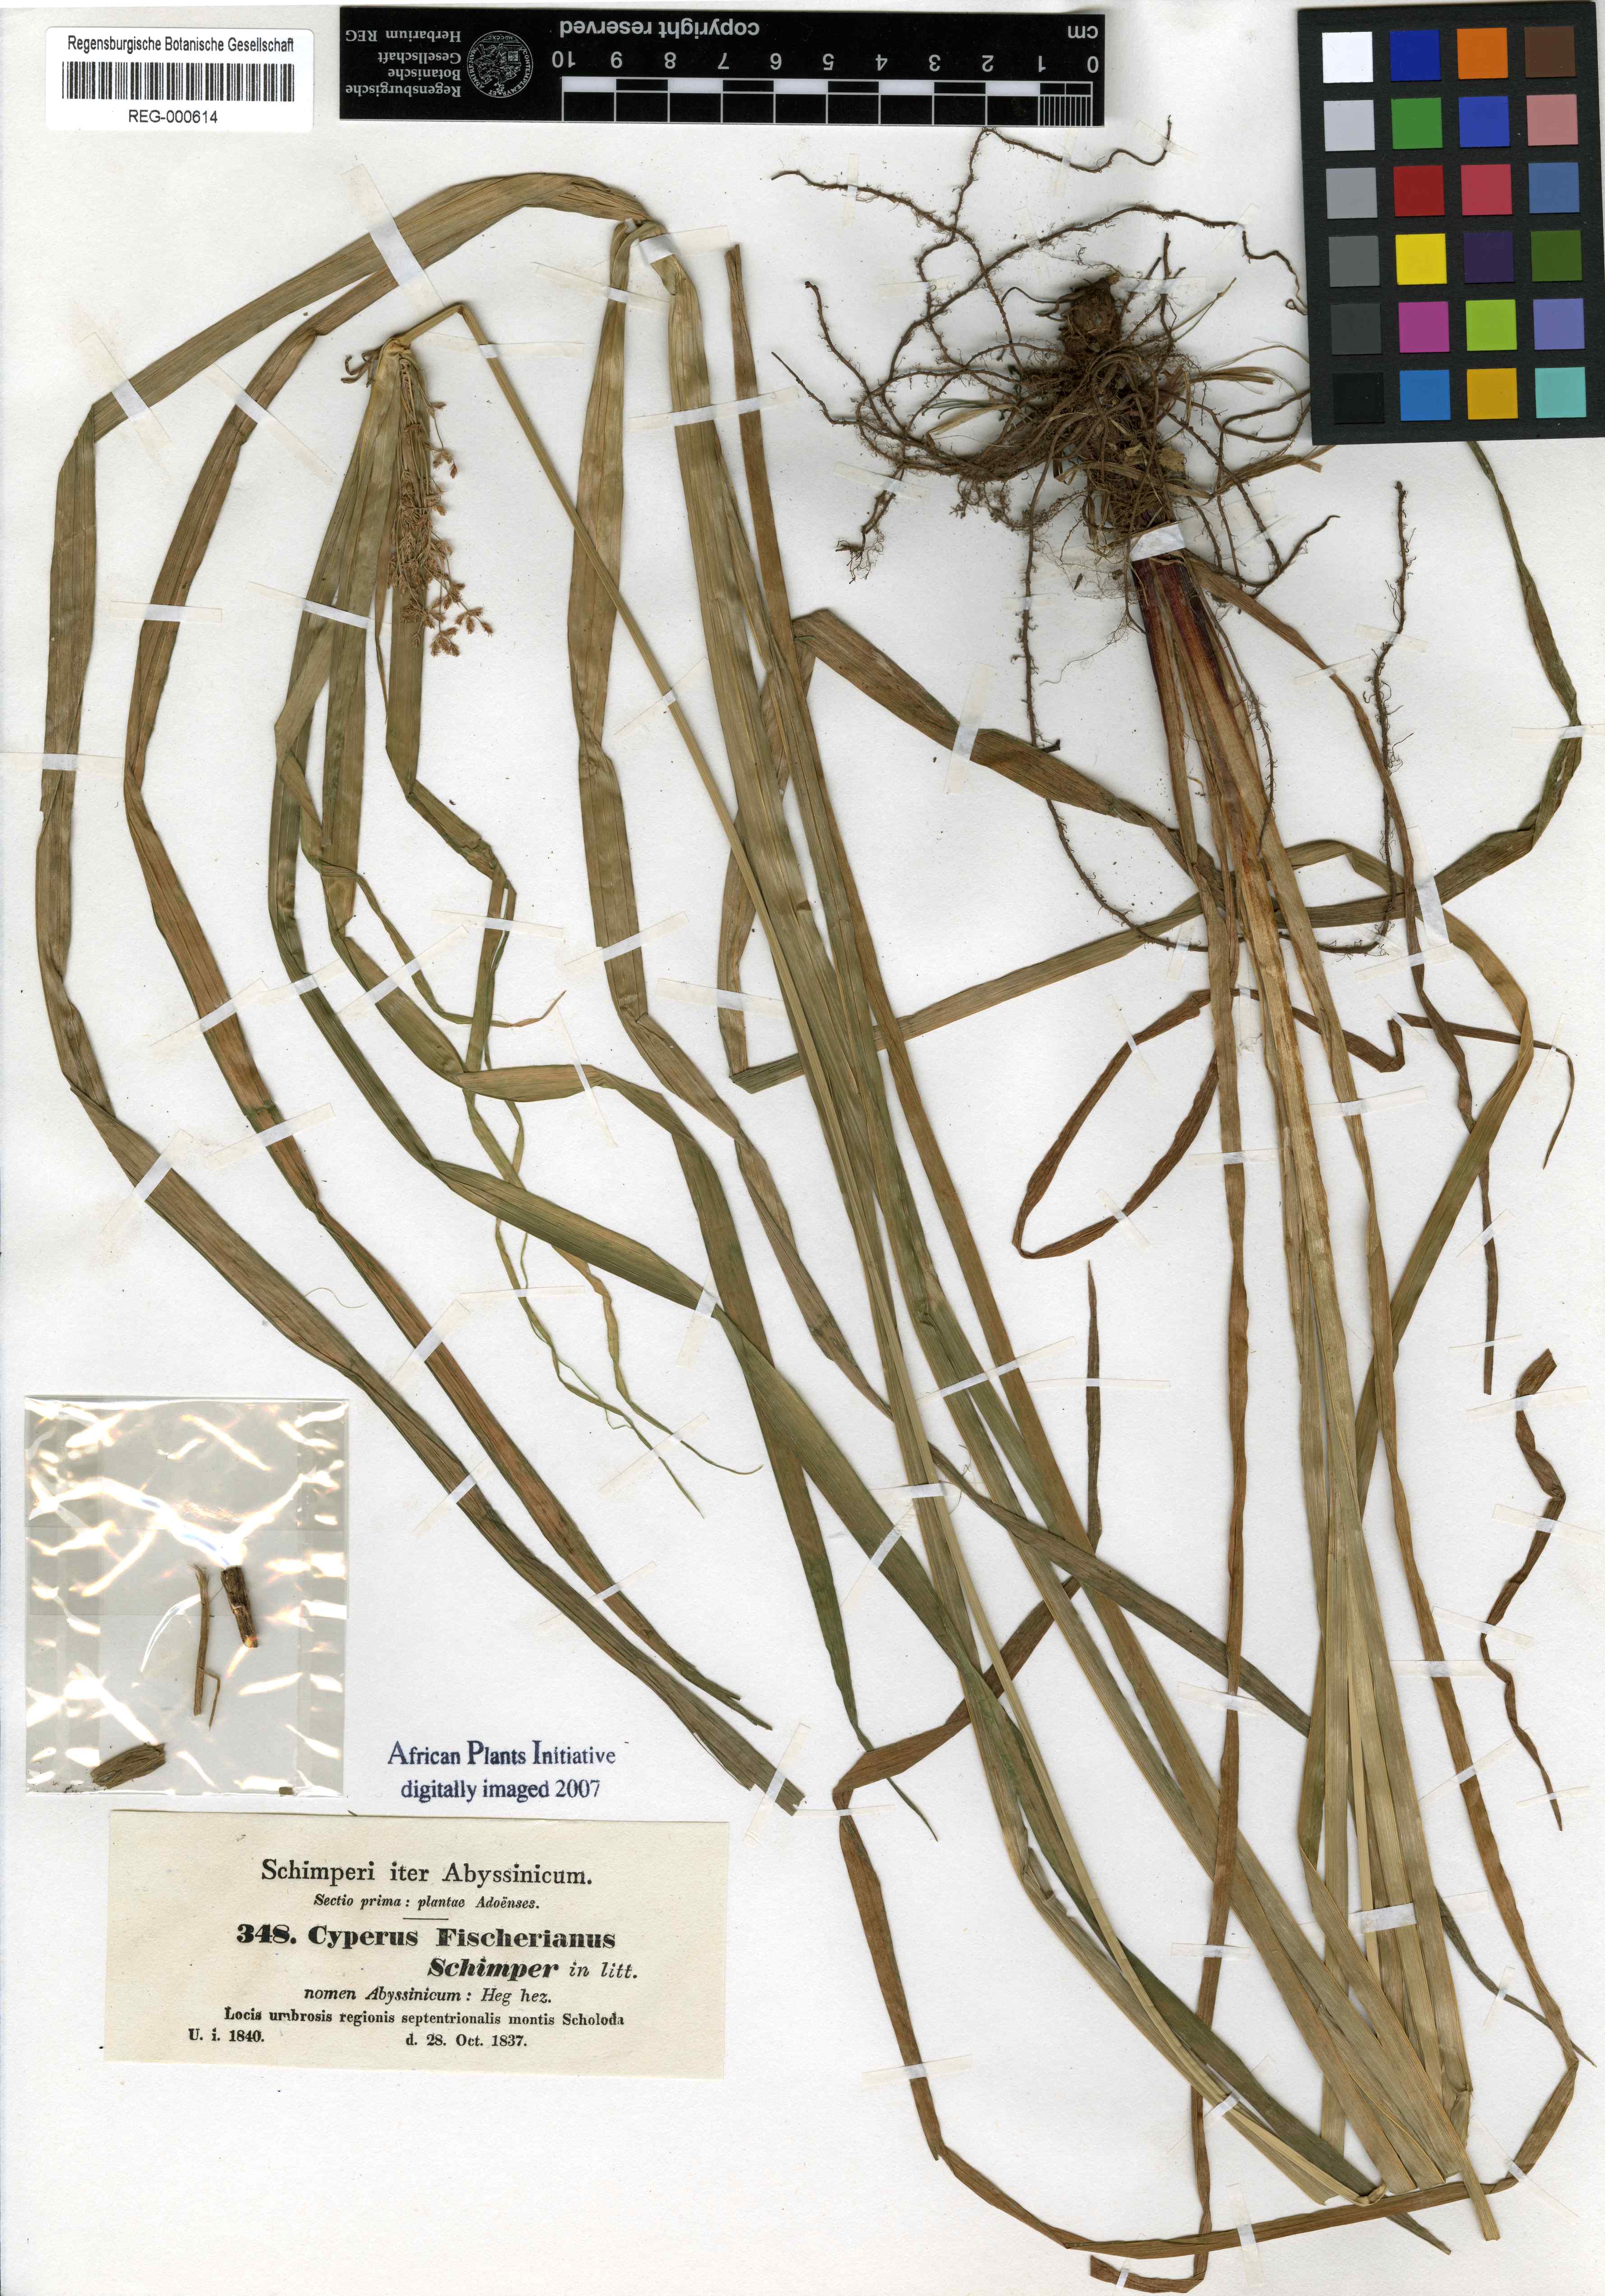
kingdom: Plantae
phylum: Tracheophyta
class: Liliopsida
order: Poales
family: Cyperaceae
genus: Cyperus
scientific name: Cyperus fischerianus
